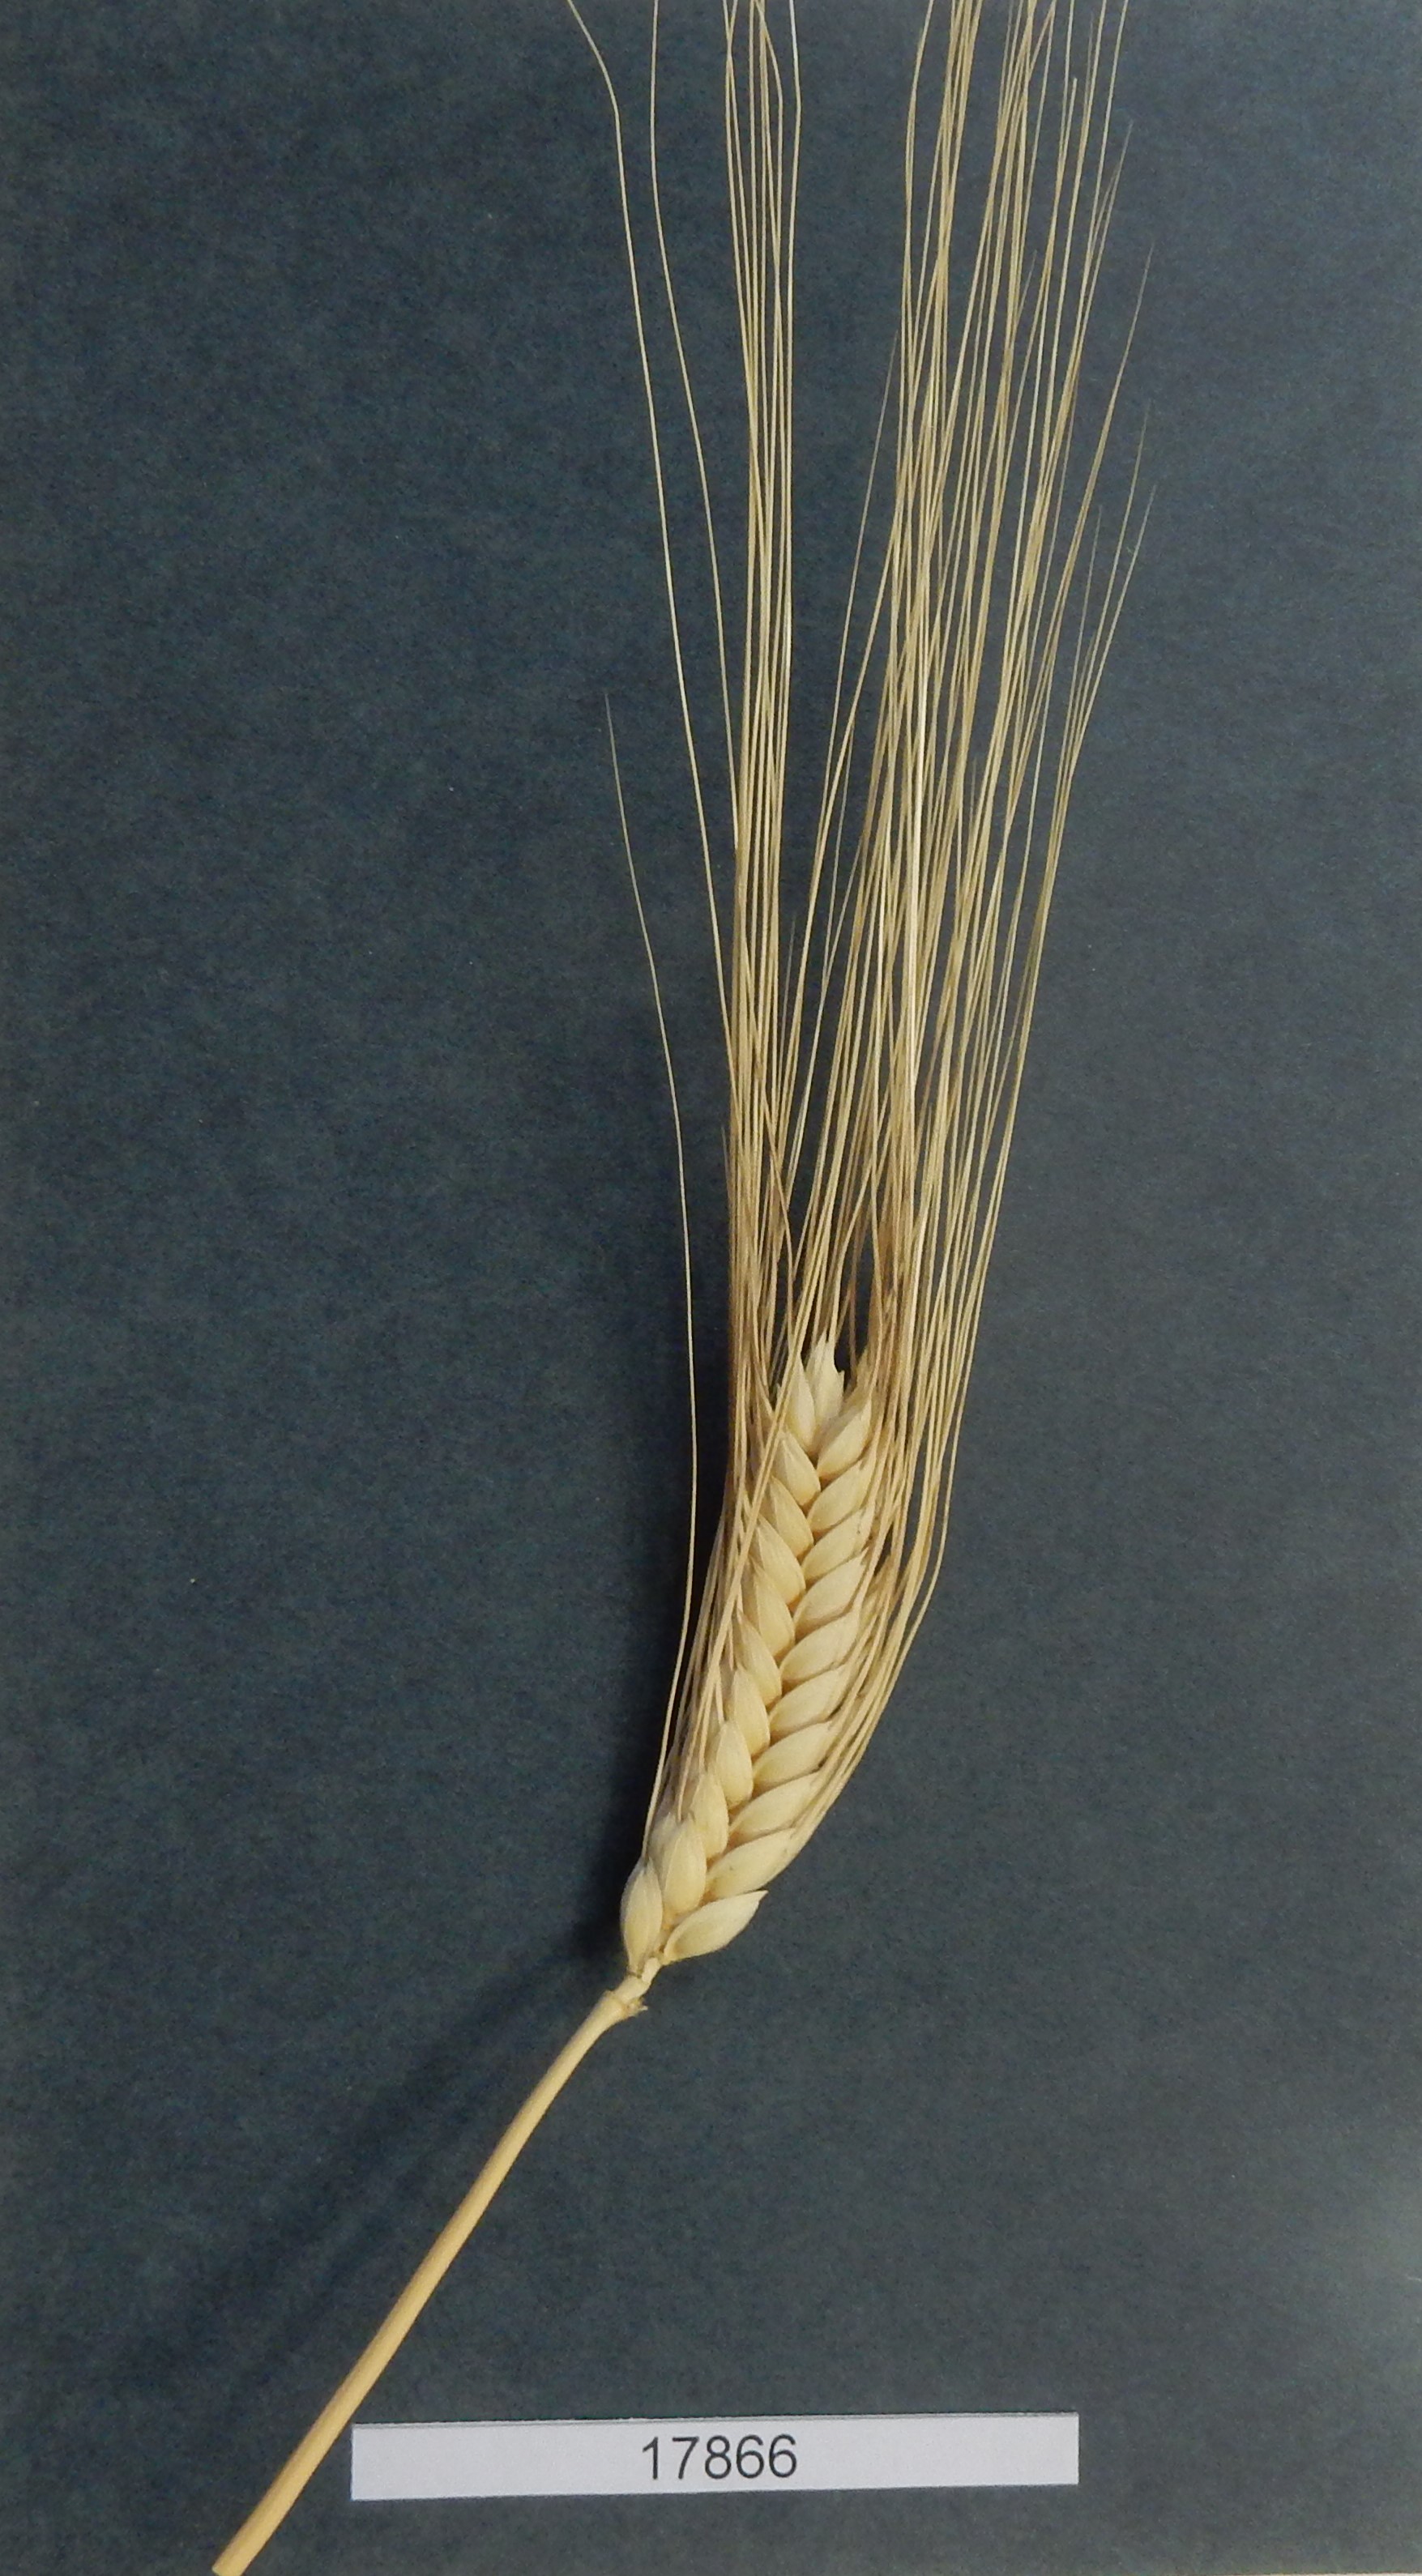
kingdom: Plantae
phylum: Tracheophyta
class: Liliopsida
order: Poales
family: Poaceae
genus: Triticum
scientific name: Triticum turgidum
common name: Wheat
